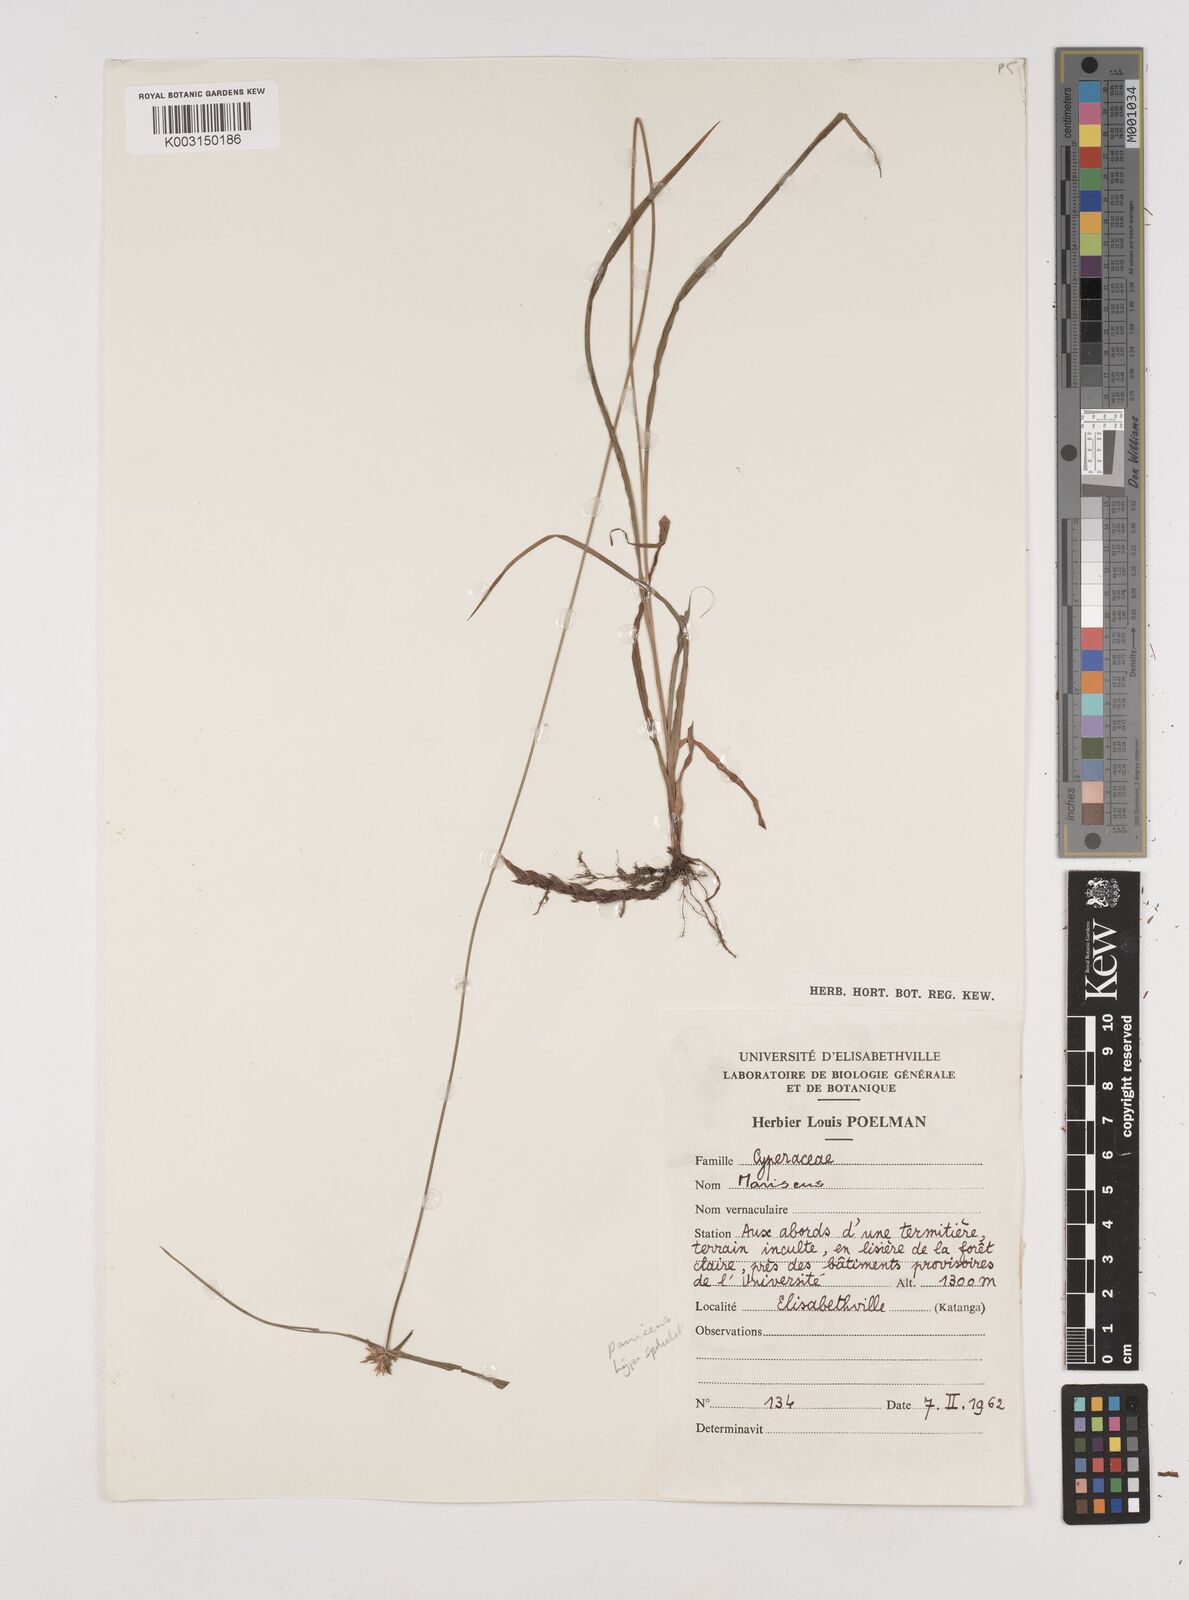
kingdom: Plantae
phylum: Tracheophyta
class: Liliopsida
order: Poales
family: Cyperaceae
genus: Cyperus
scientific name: Cyperus
